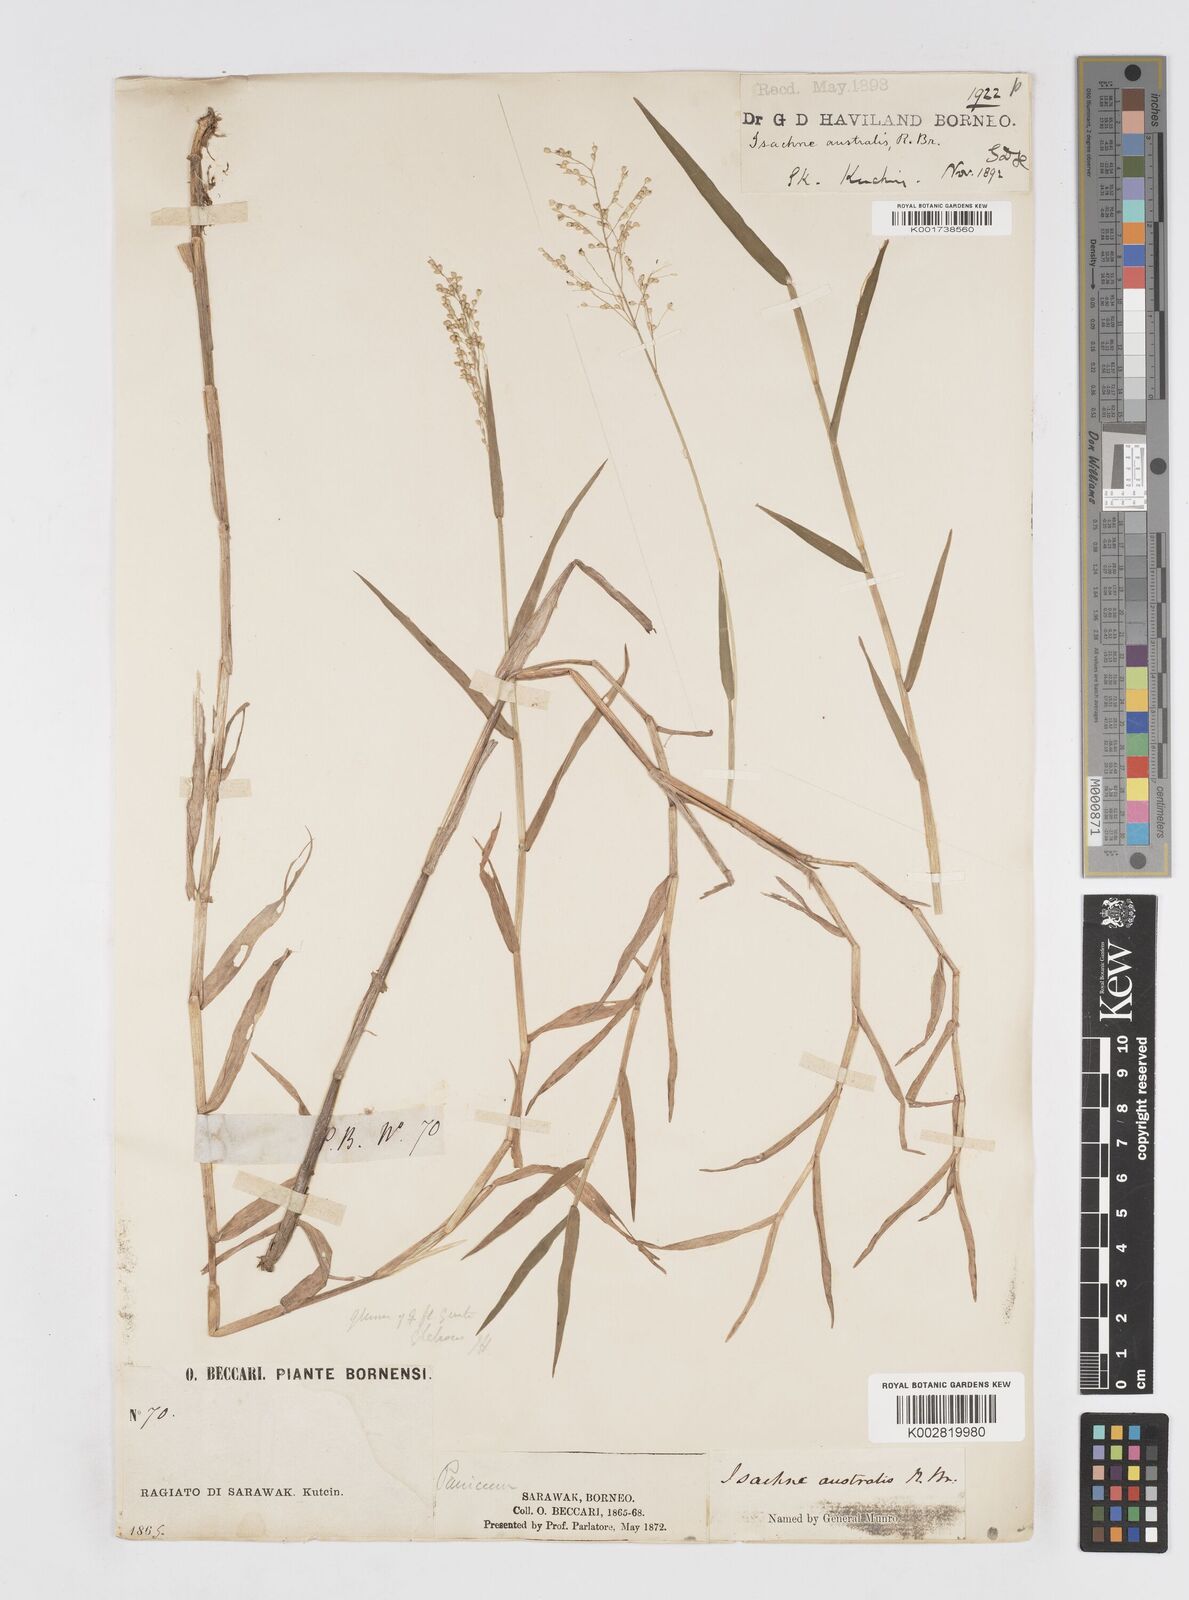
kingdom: Plantae
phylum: Tracheophyta
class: Liliopsida
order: Poales
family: Poaceae
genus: Isachne
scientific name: Isachne globosa
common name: Swamp millet
